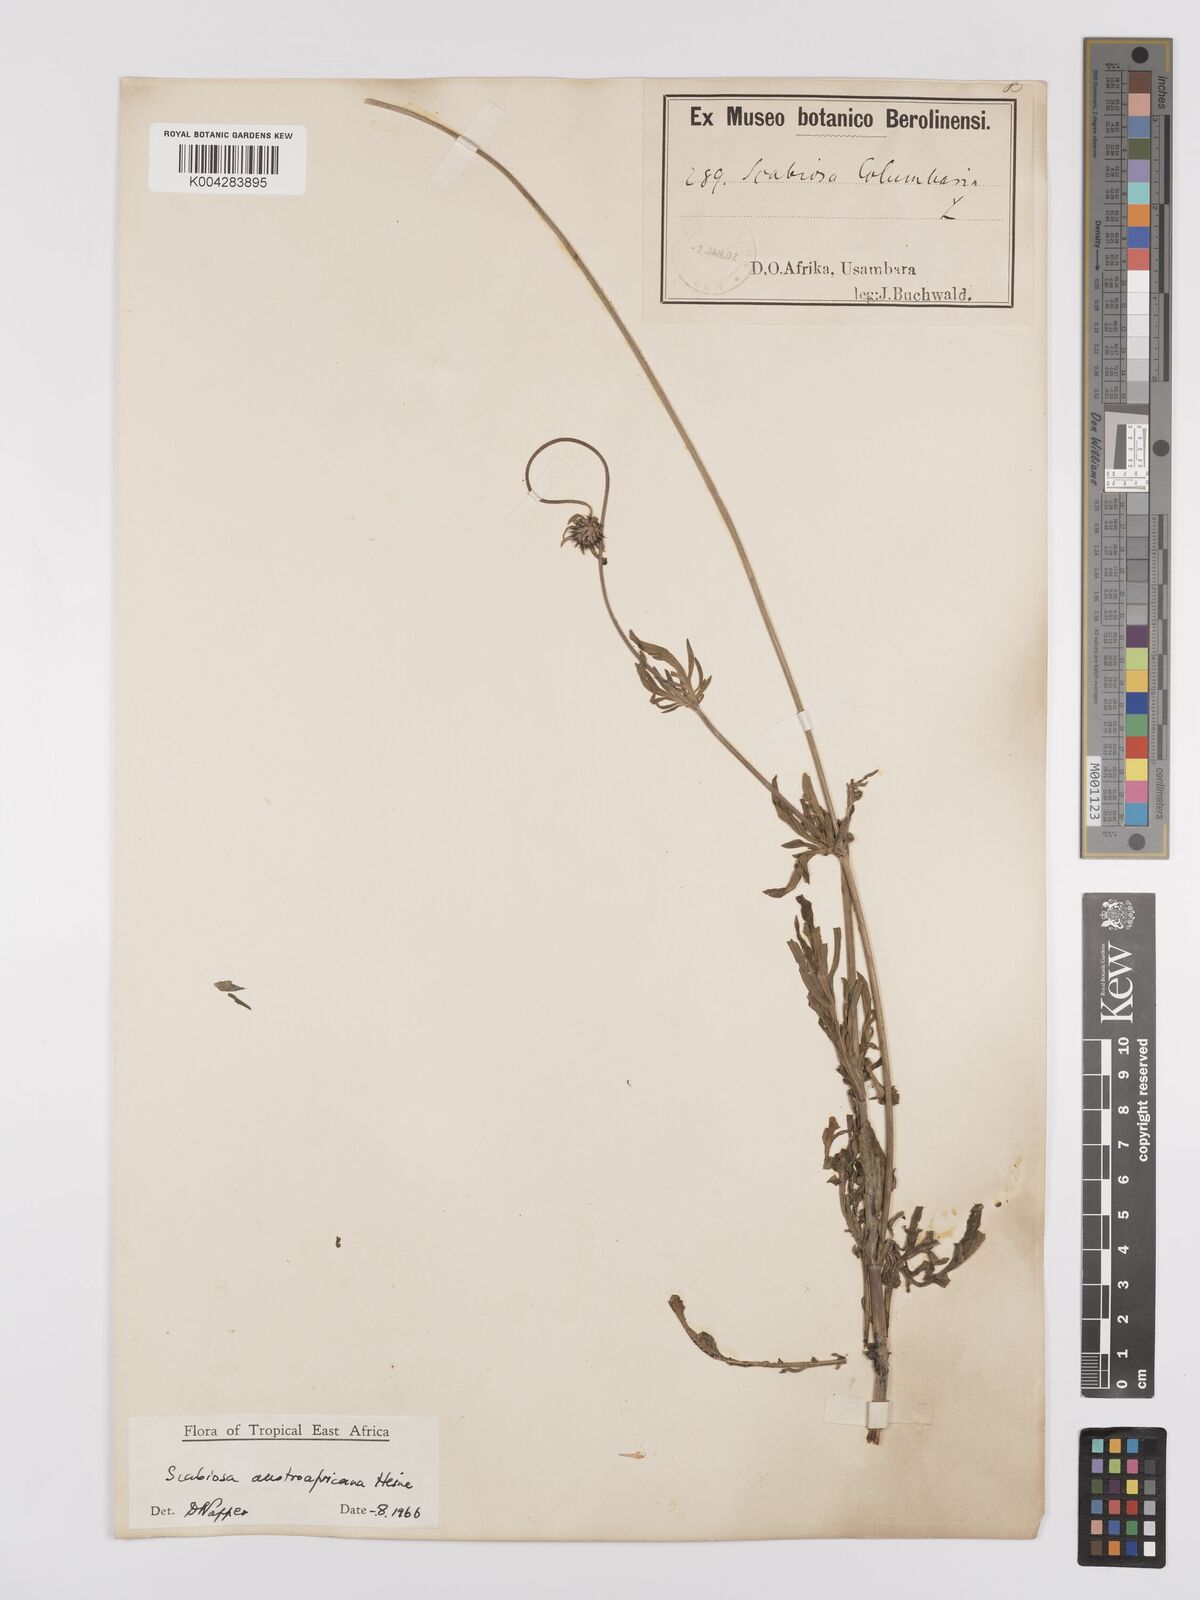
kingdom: Plantae
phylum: Tracheophyta
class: Magnoliopsida
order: Dipsacales
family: Caprifoliaceae
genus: Scabiosa
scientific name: Scabiosa austroafricana
